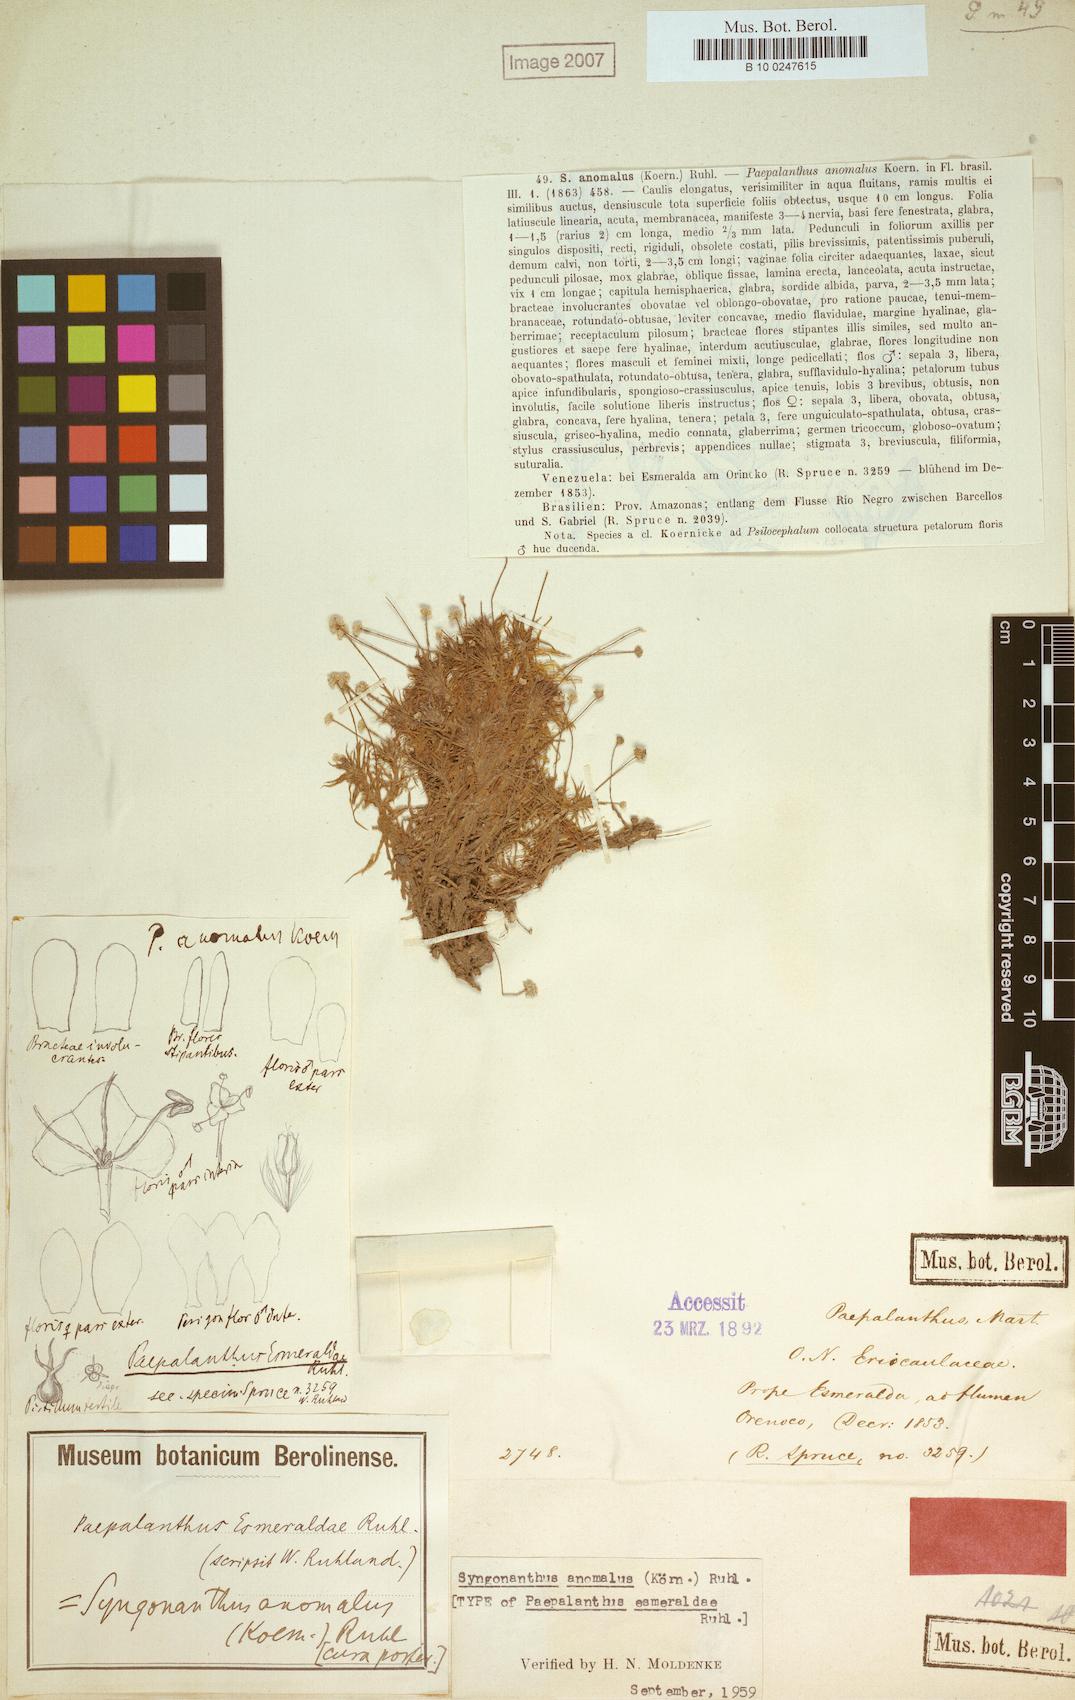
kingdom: Plantae
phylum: Tracheophyta
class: Liliopsida
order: Poales
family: Eriocaulaceae
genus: Syngonanthus
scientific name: Syngonanthus anomalus
